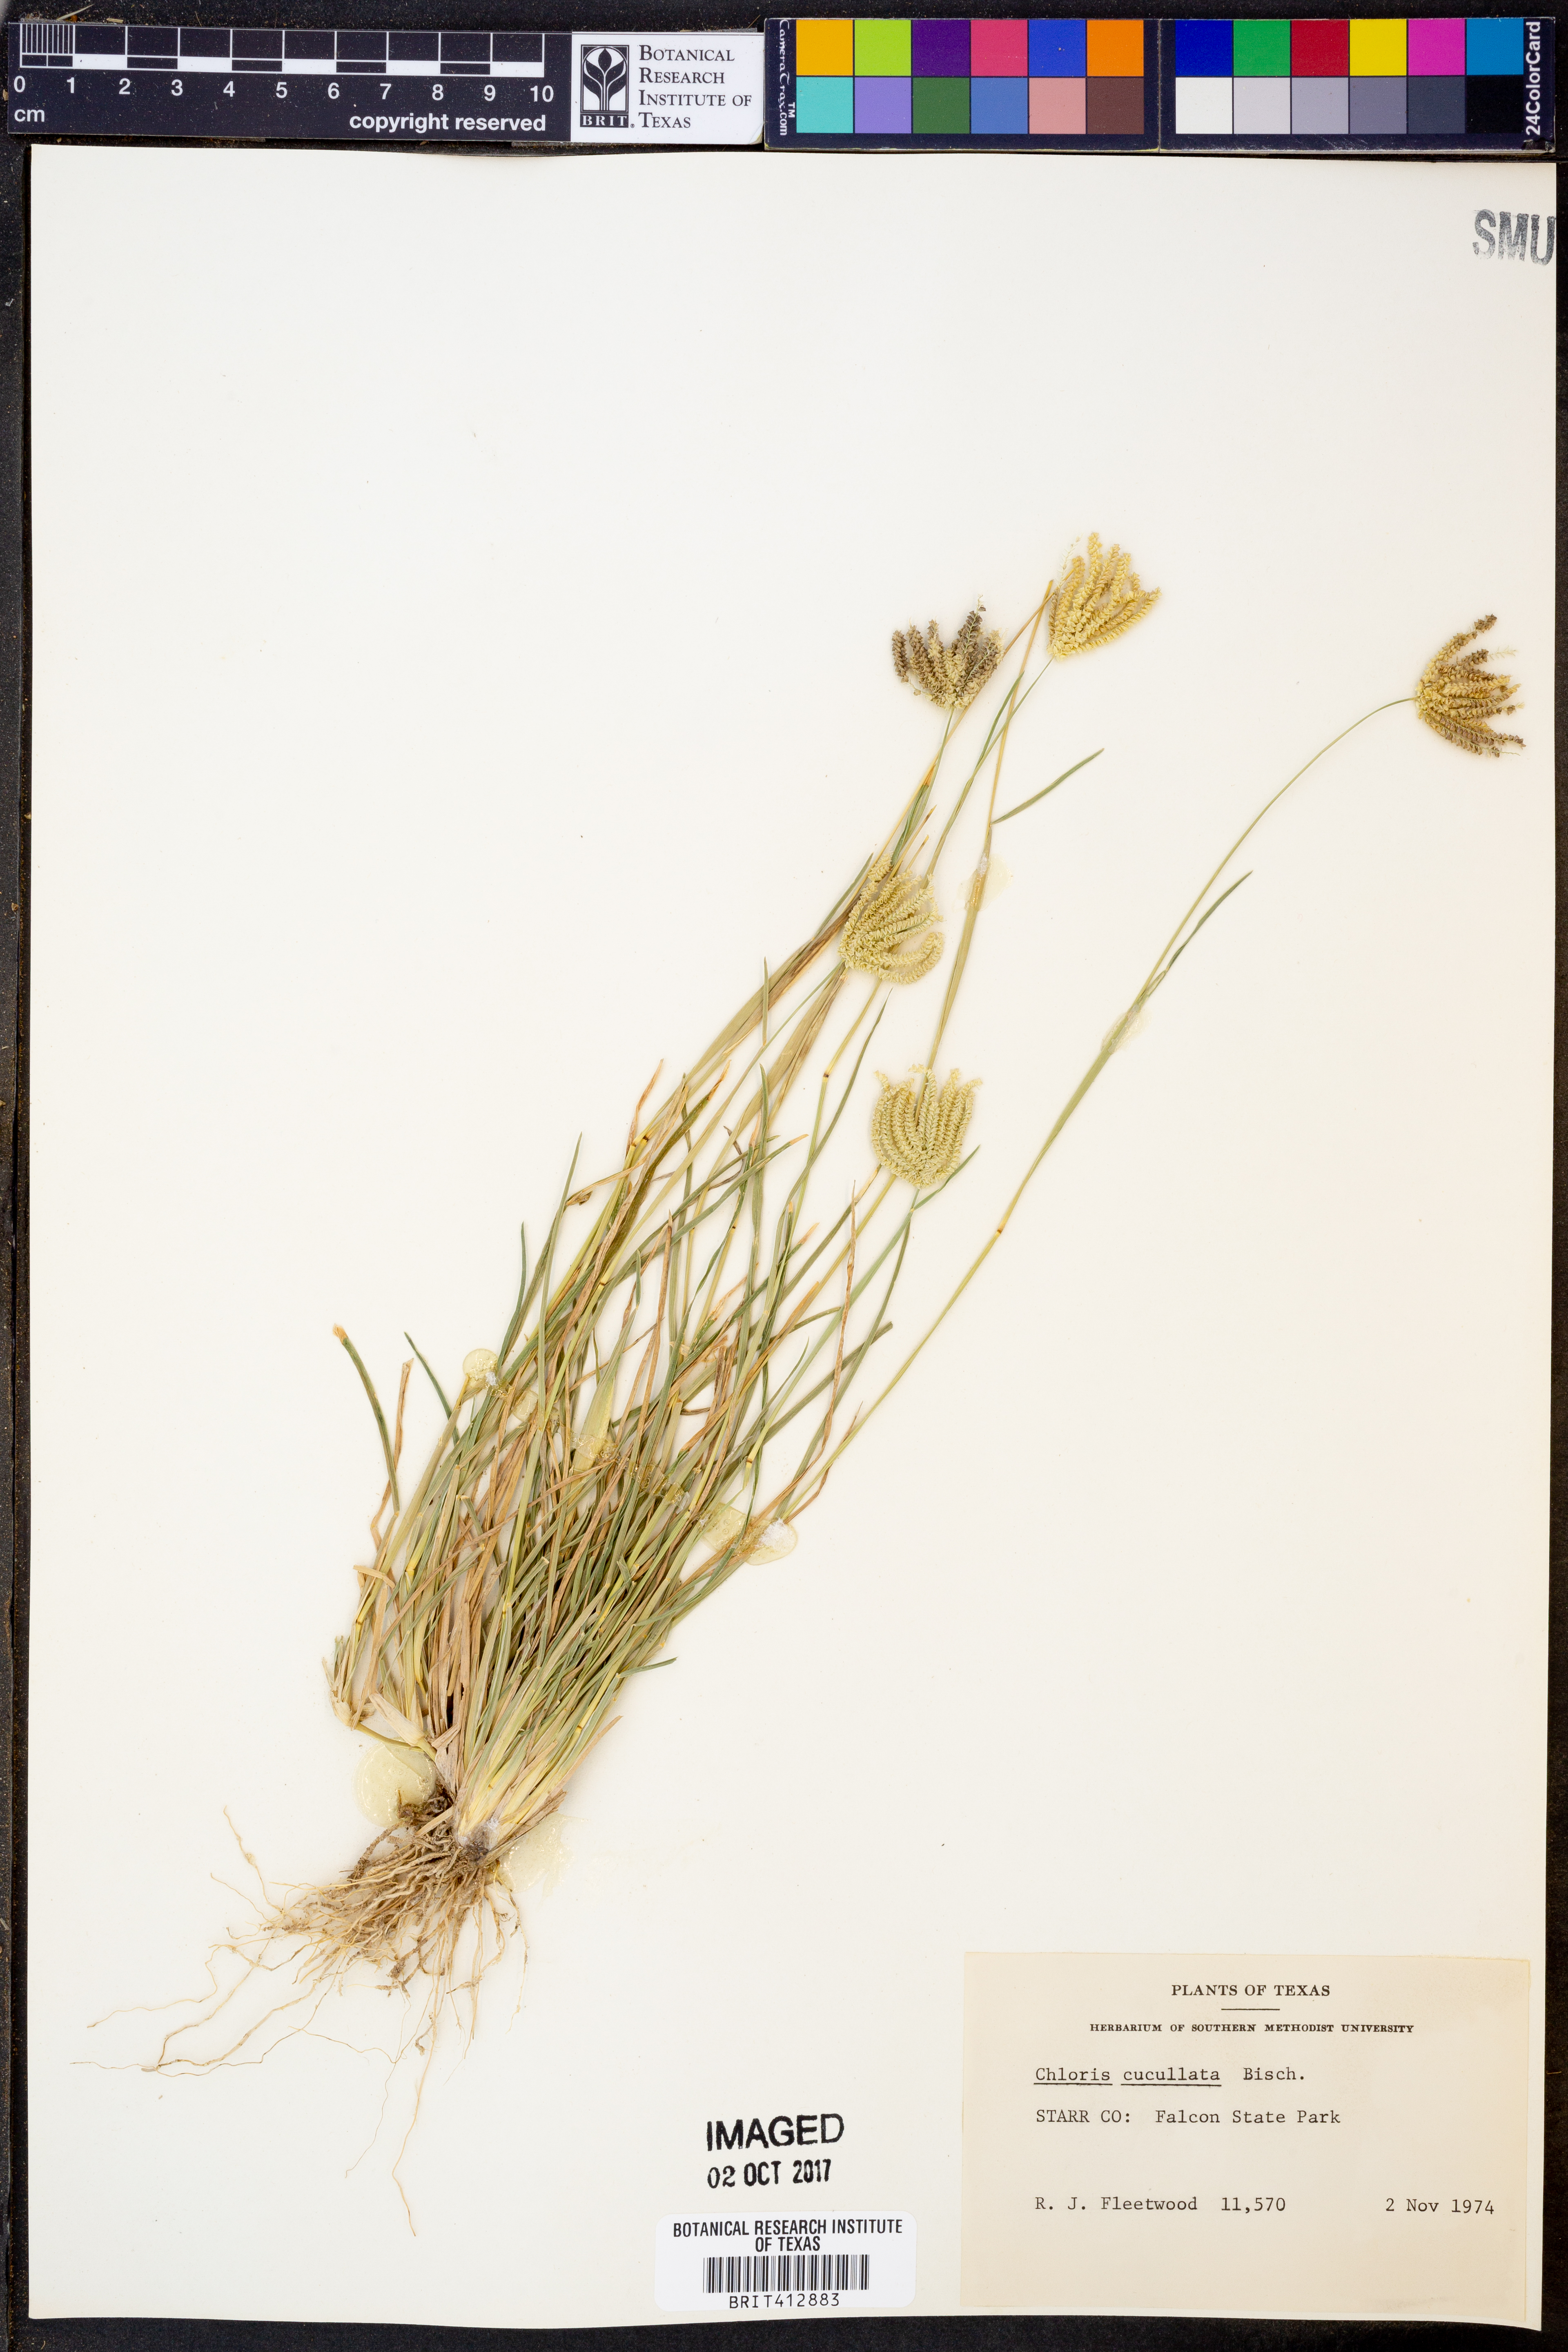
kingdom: Plantae
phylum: Tracheophyta
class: Liliopsida
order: Poales
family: Poaceae
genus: Chloris
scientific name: Chloris cucullata
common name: Hooded windmill grass
